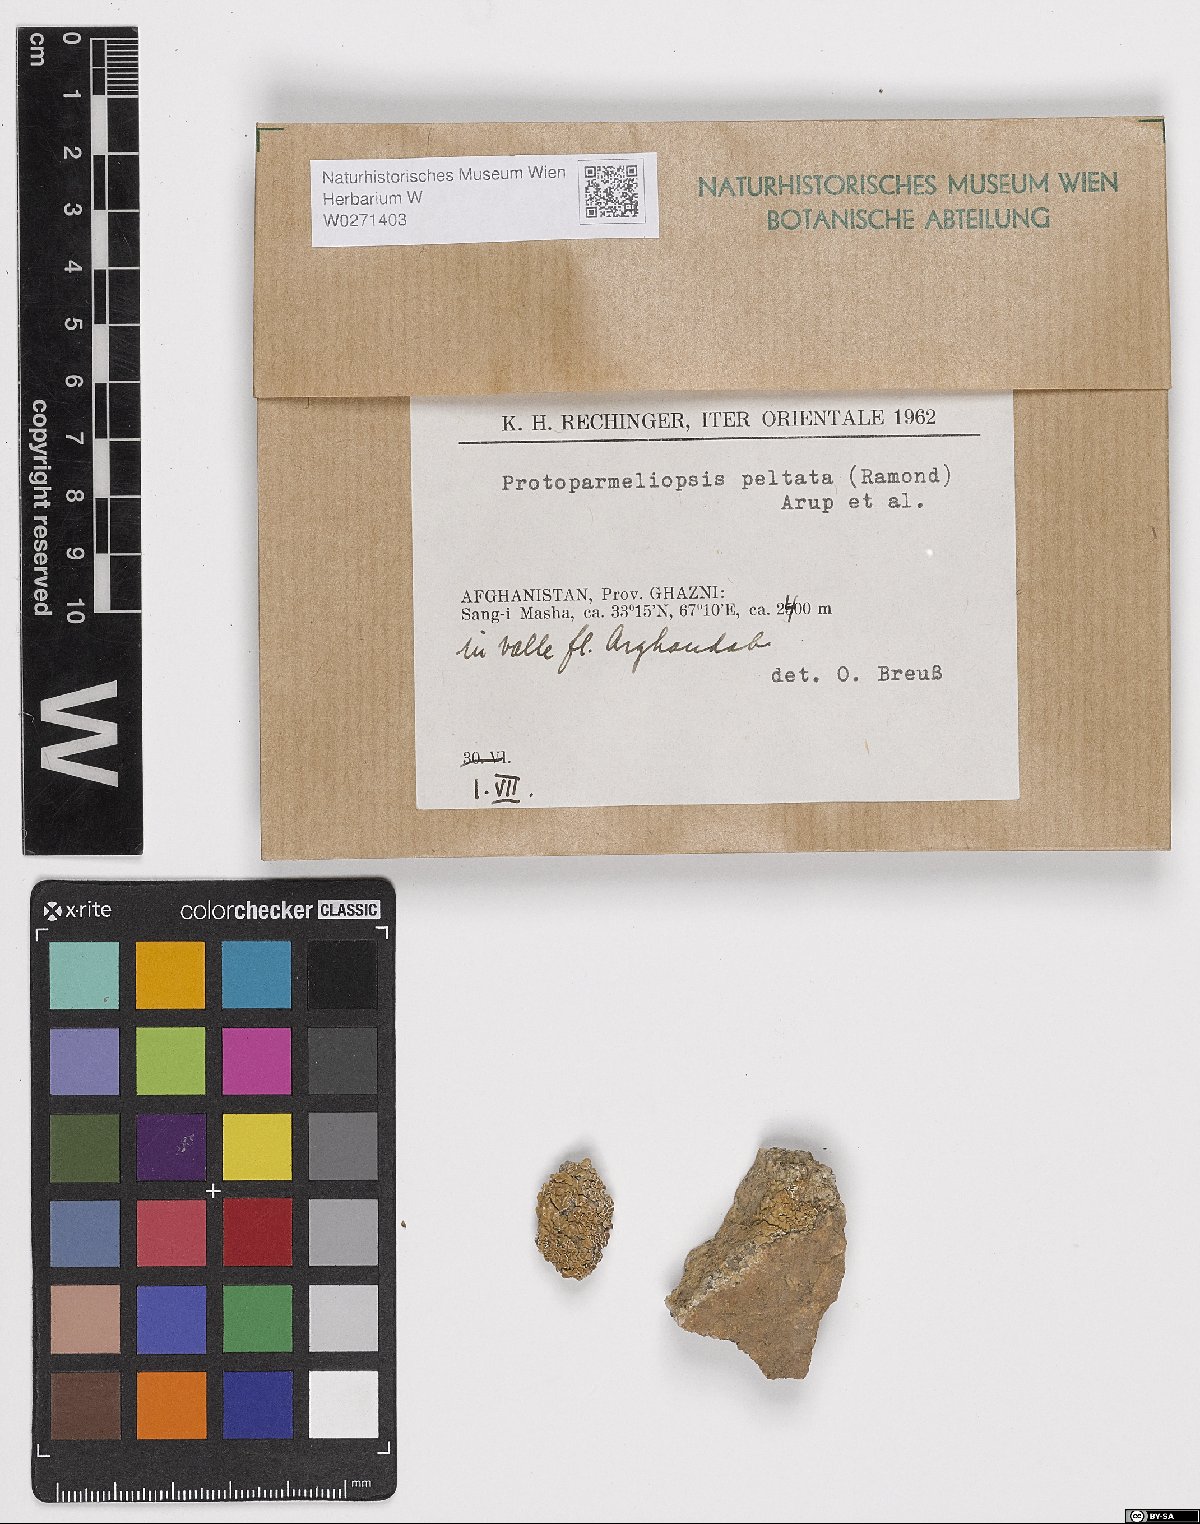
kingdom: Fungi
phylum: Ascomycota
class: Lecanoromycetes
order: Lecanorales
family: Lecanoraceae
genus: Protoparmeliopsis
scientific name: Protoparmeliopsis peltata
